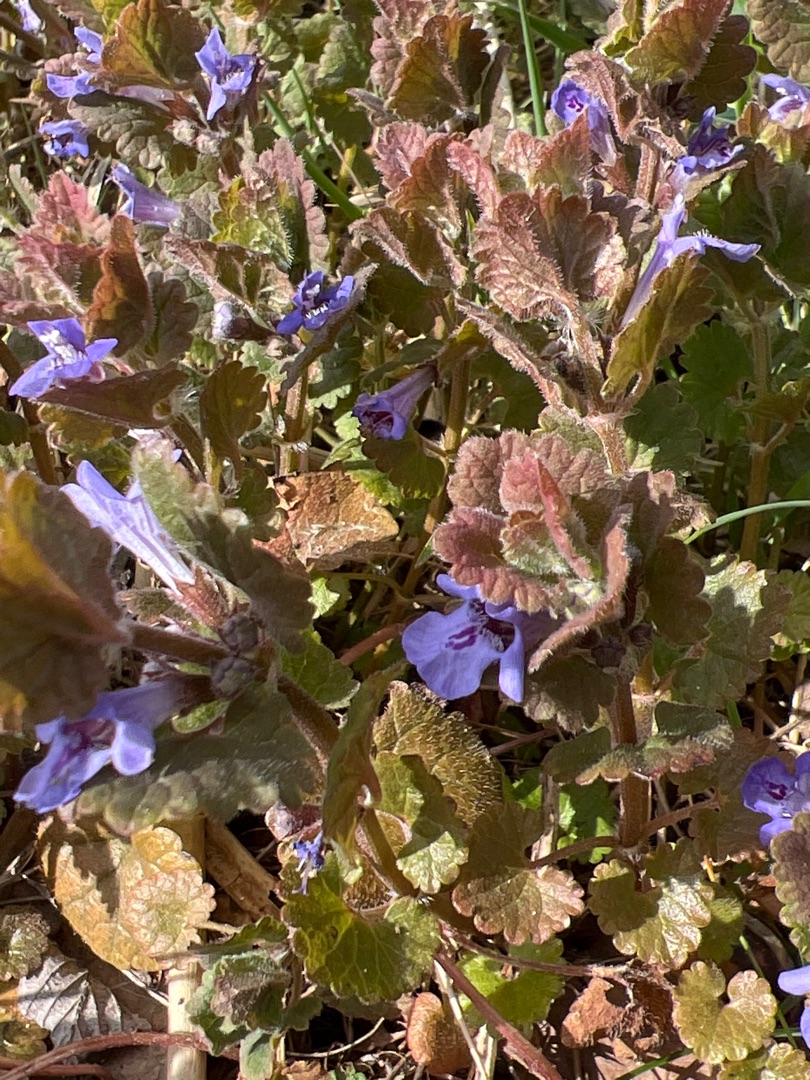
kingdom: Plantae
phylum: Tracheophyta
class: Magnoliopsida
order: Lamiales
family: Lamiaceae
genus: Glechoma
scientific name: Glechoma hederacea
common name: Korsknap
